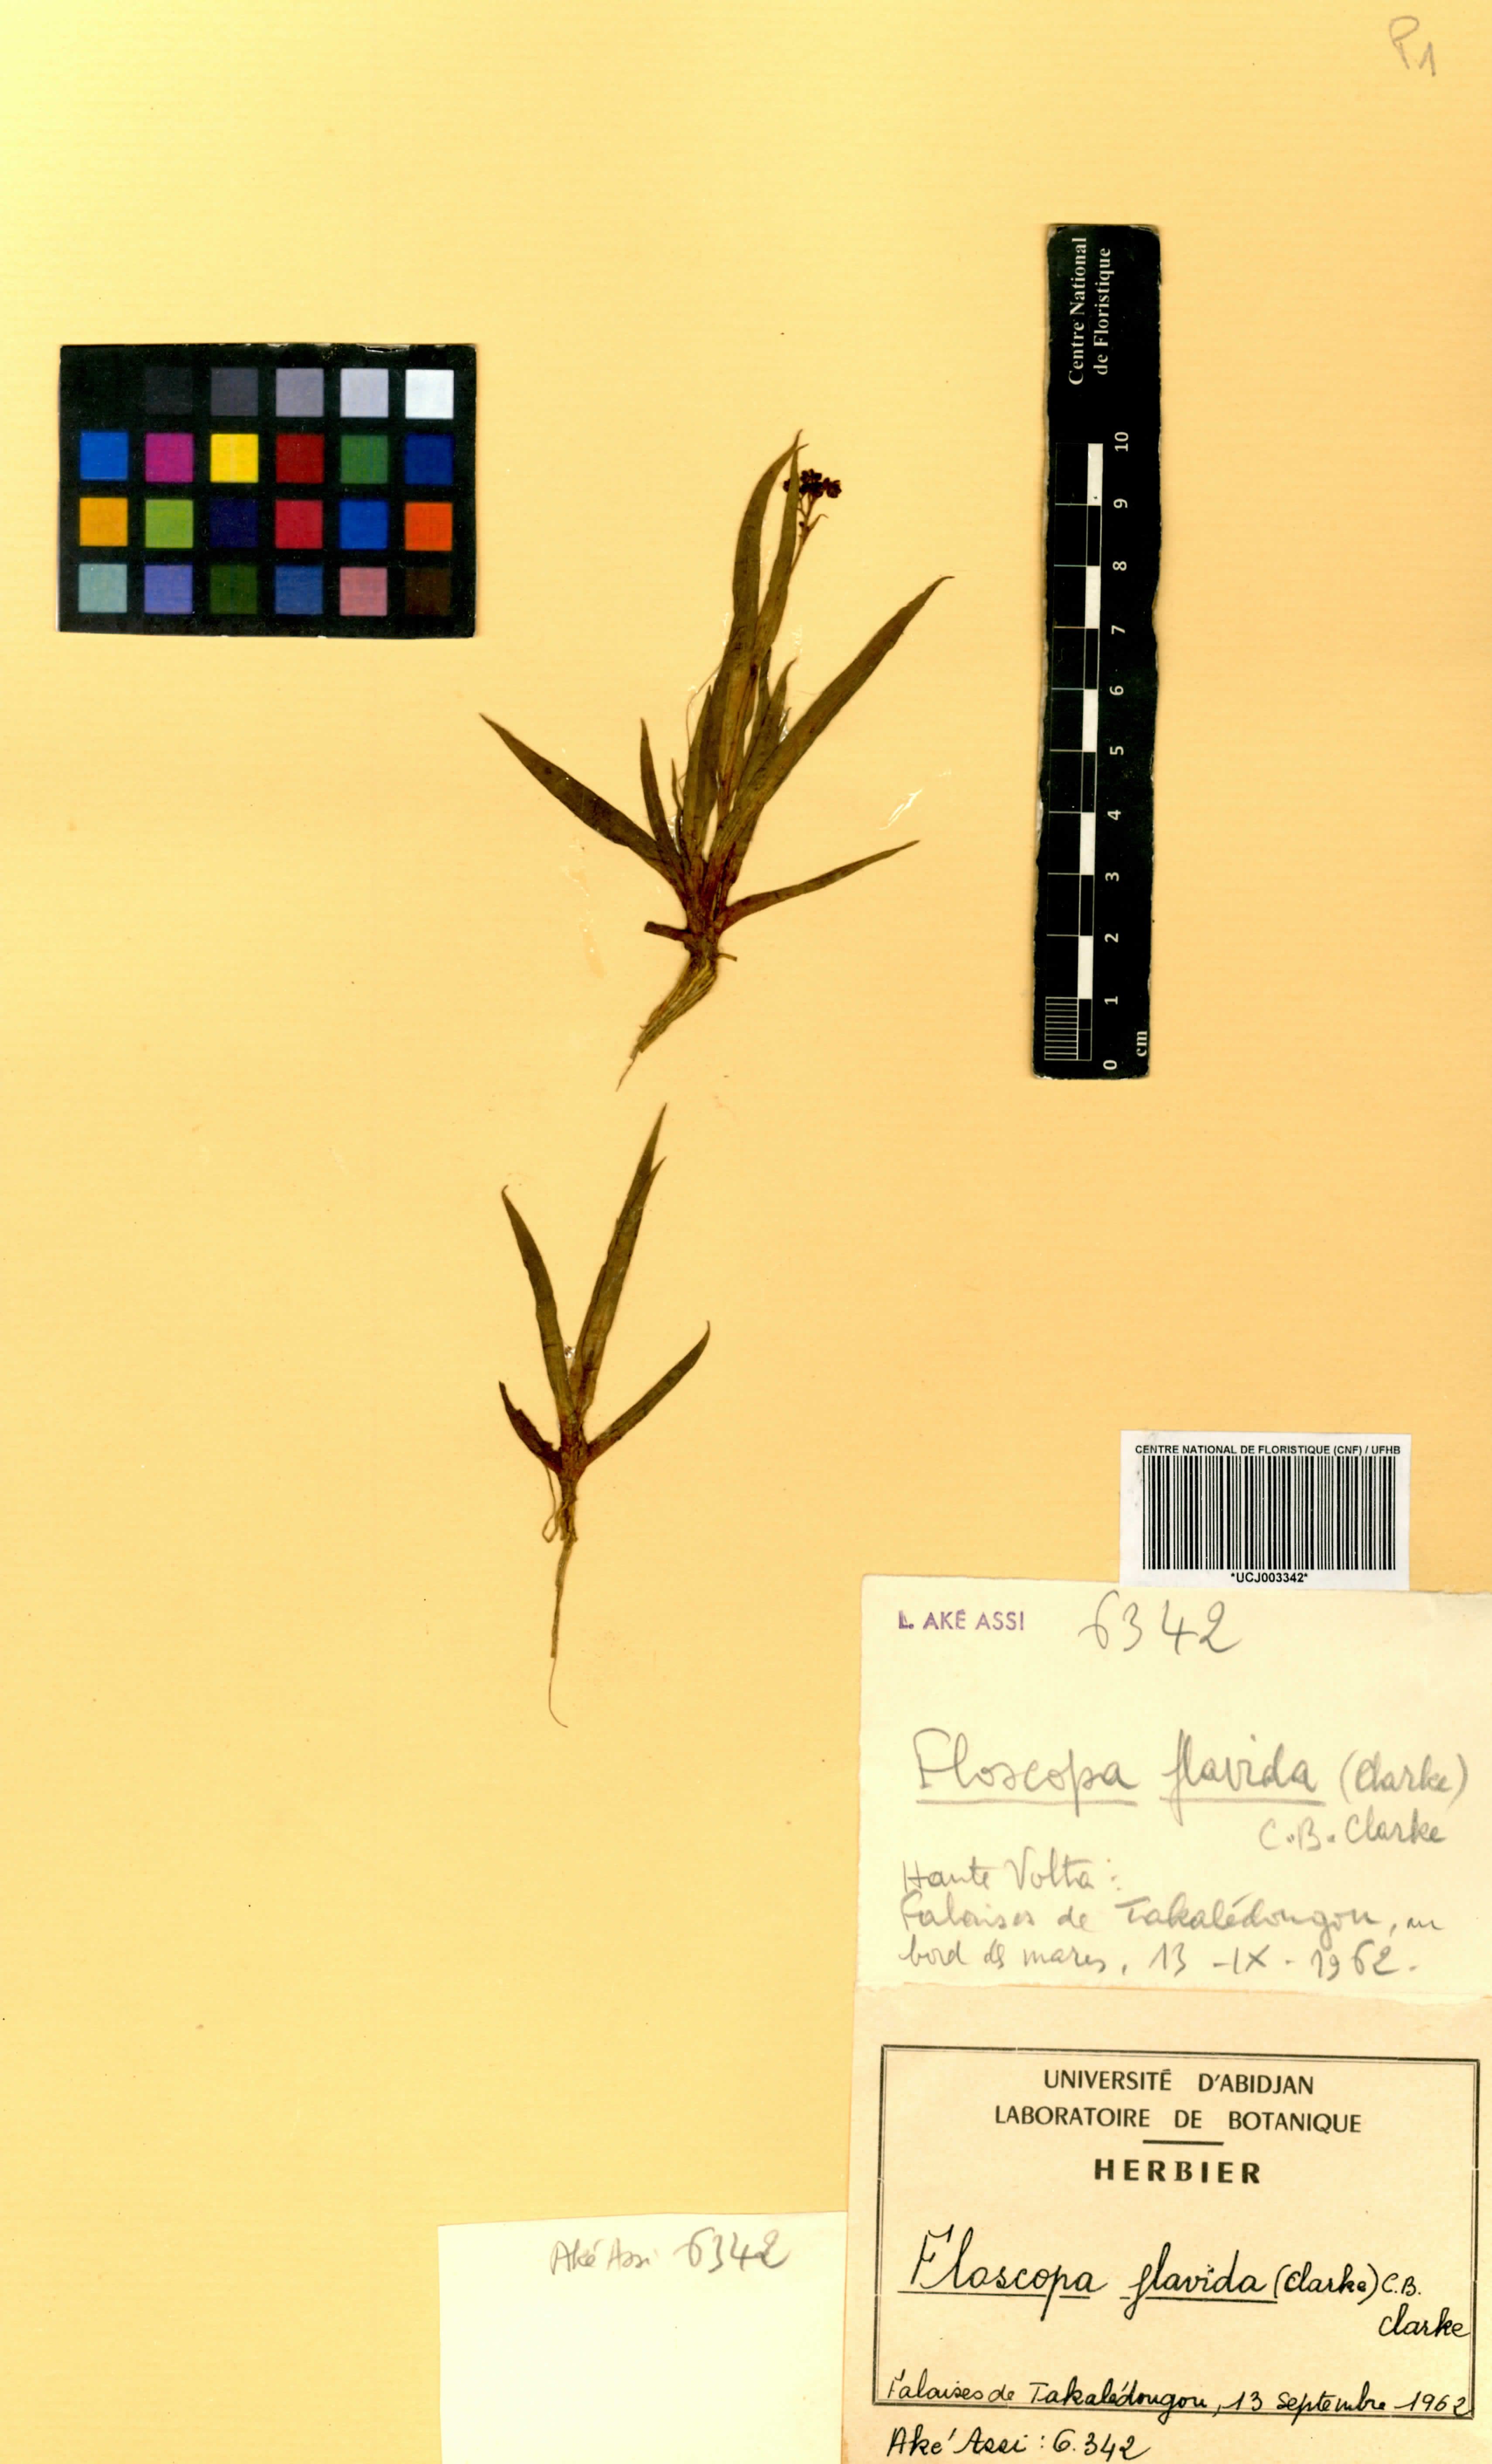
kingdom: Plantae
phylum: Tracheophyta
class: Liliopsida
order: Commelinales
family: Commelinaceae
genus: Floscopa
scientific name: Floscopa flavida
